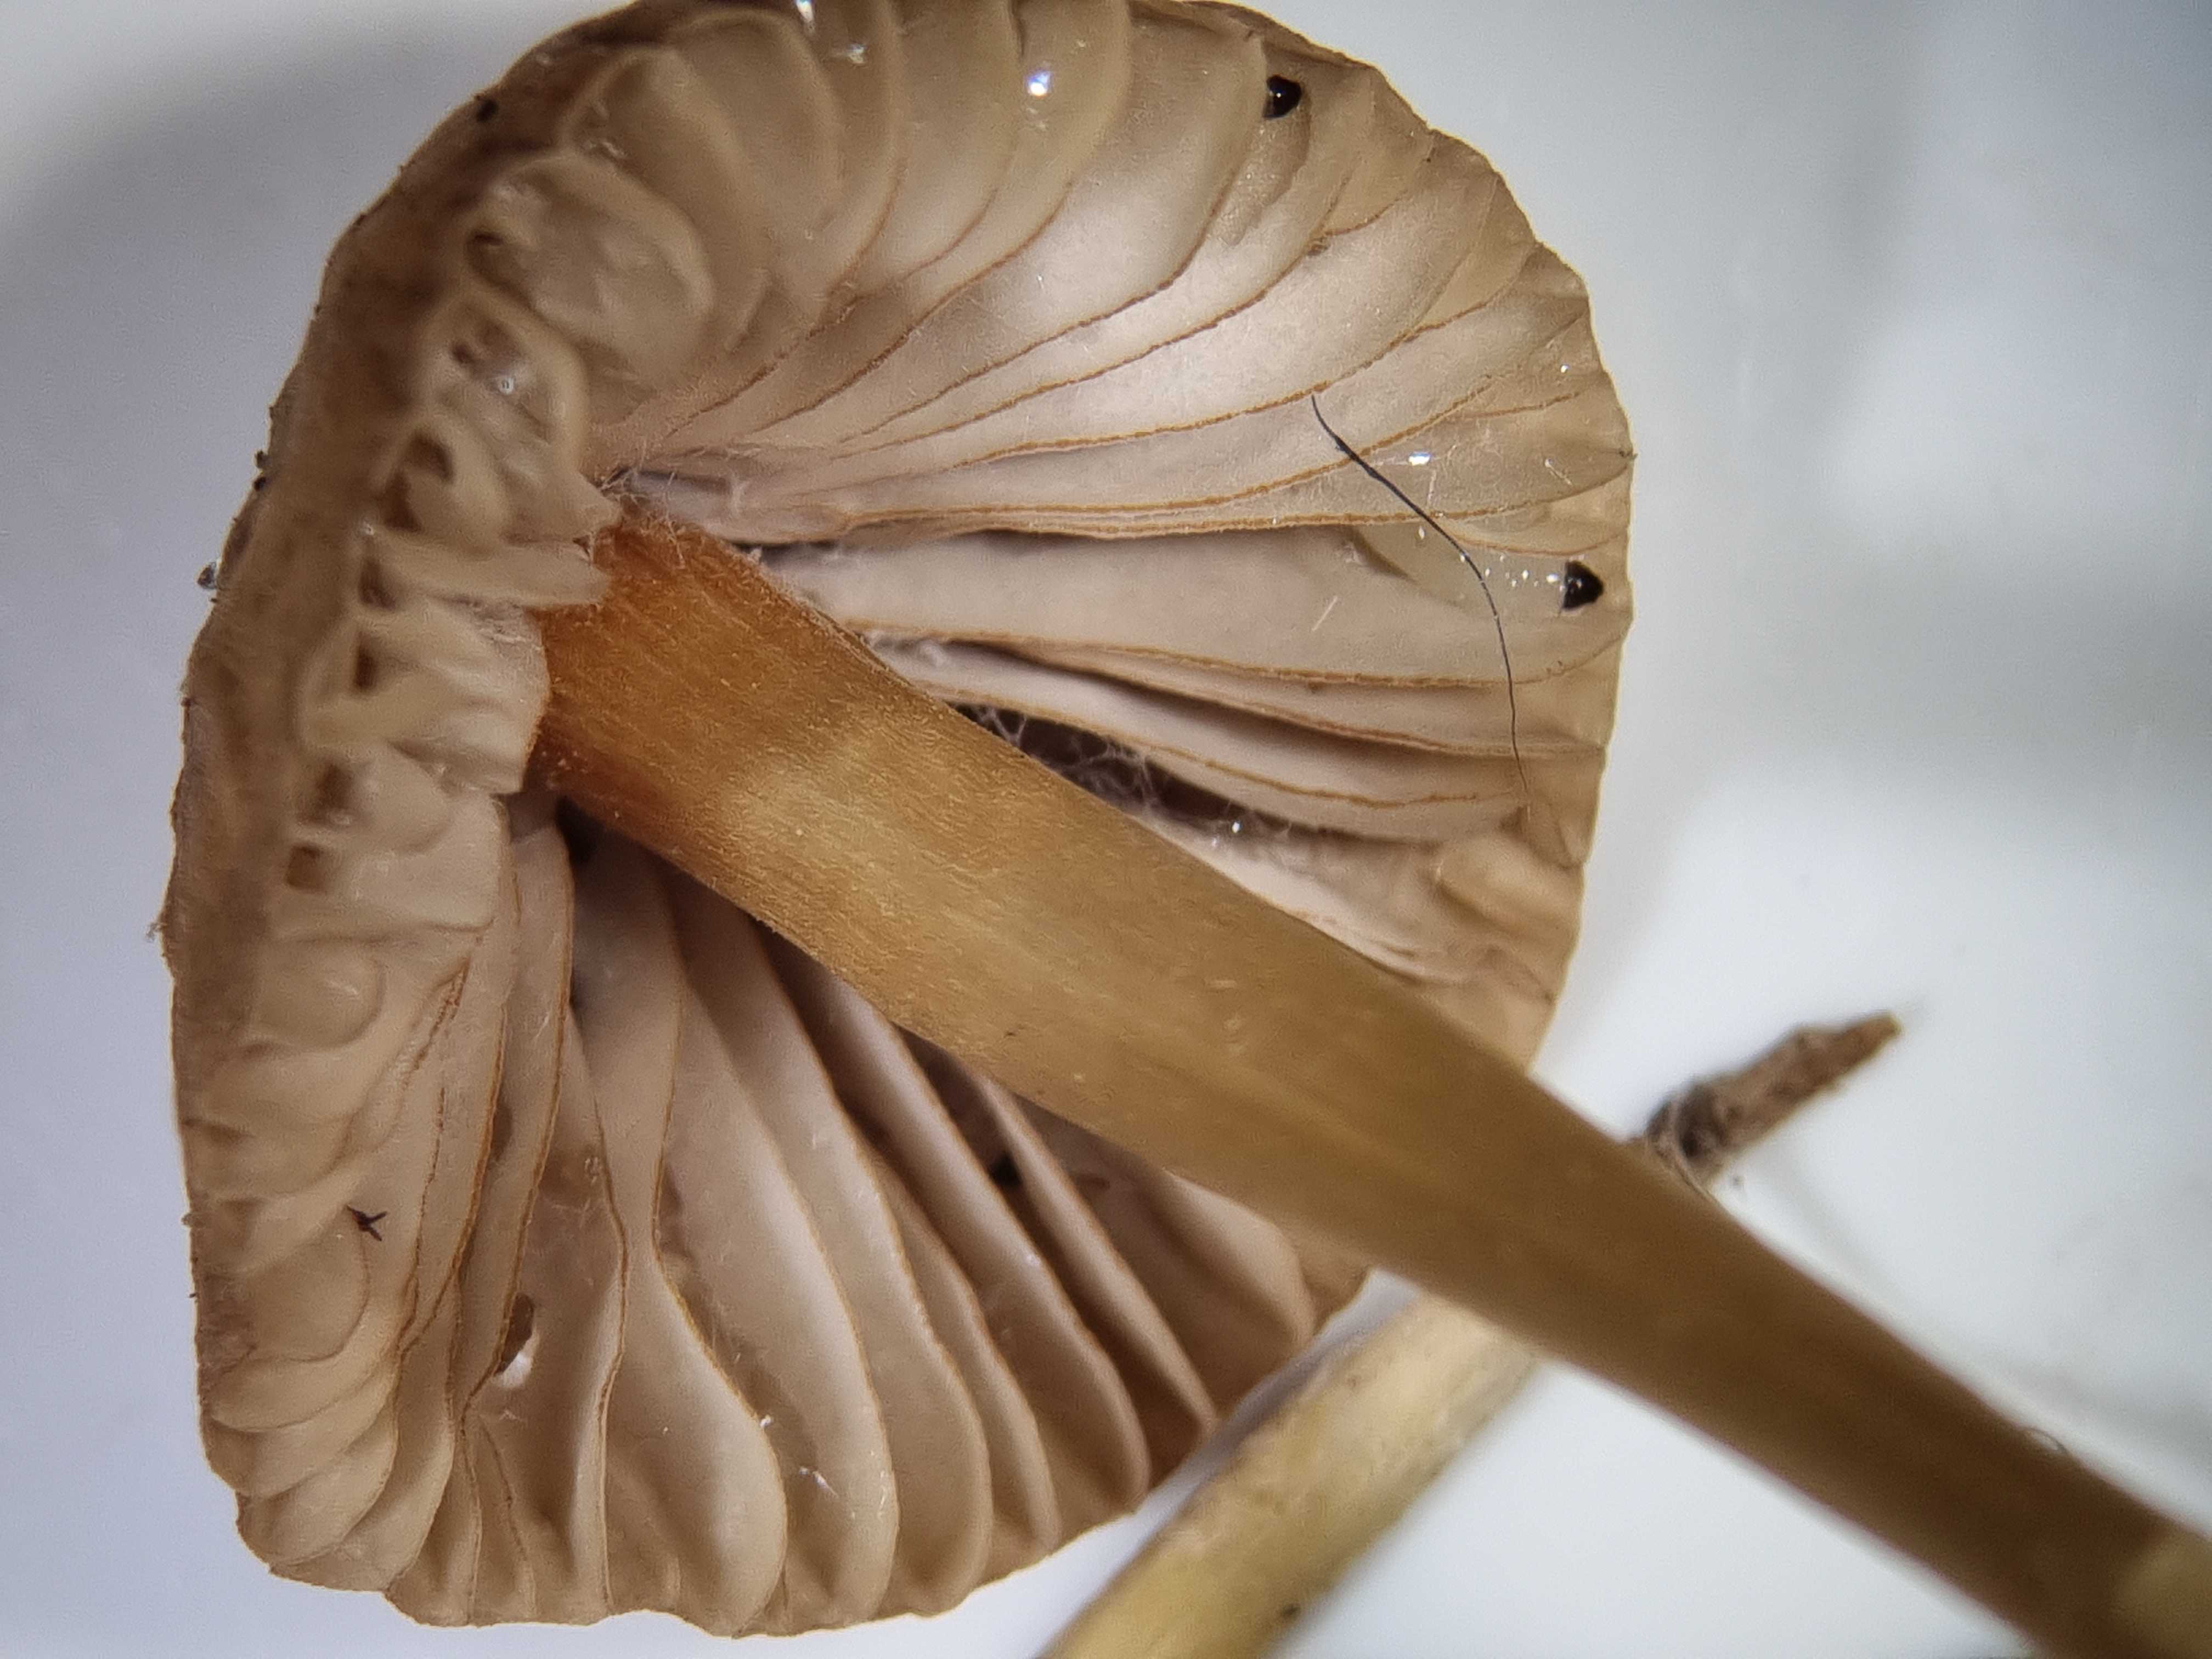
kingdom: Fungi
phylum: Basidiomycota
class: Agaricomycetes
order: Agaricales
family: Mycenaceae
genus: Mycena
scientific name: Mycena olivaceomarginata
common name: brunægget huesvamp
